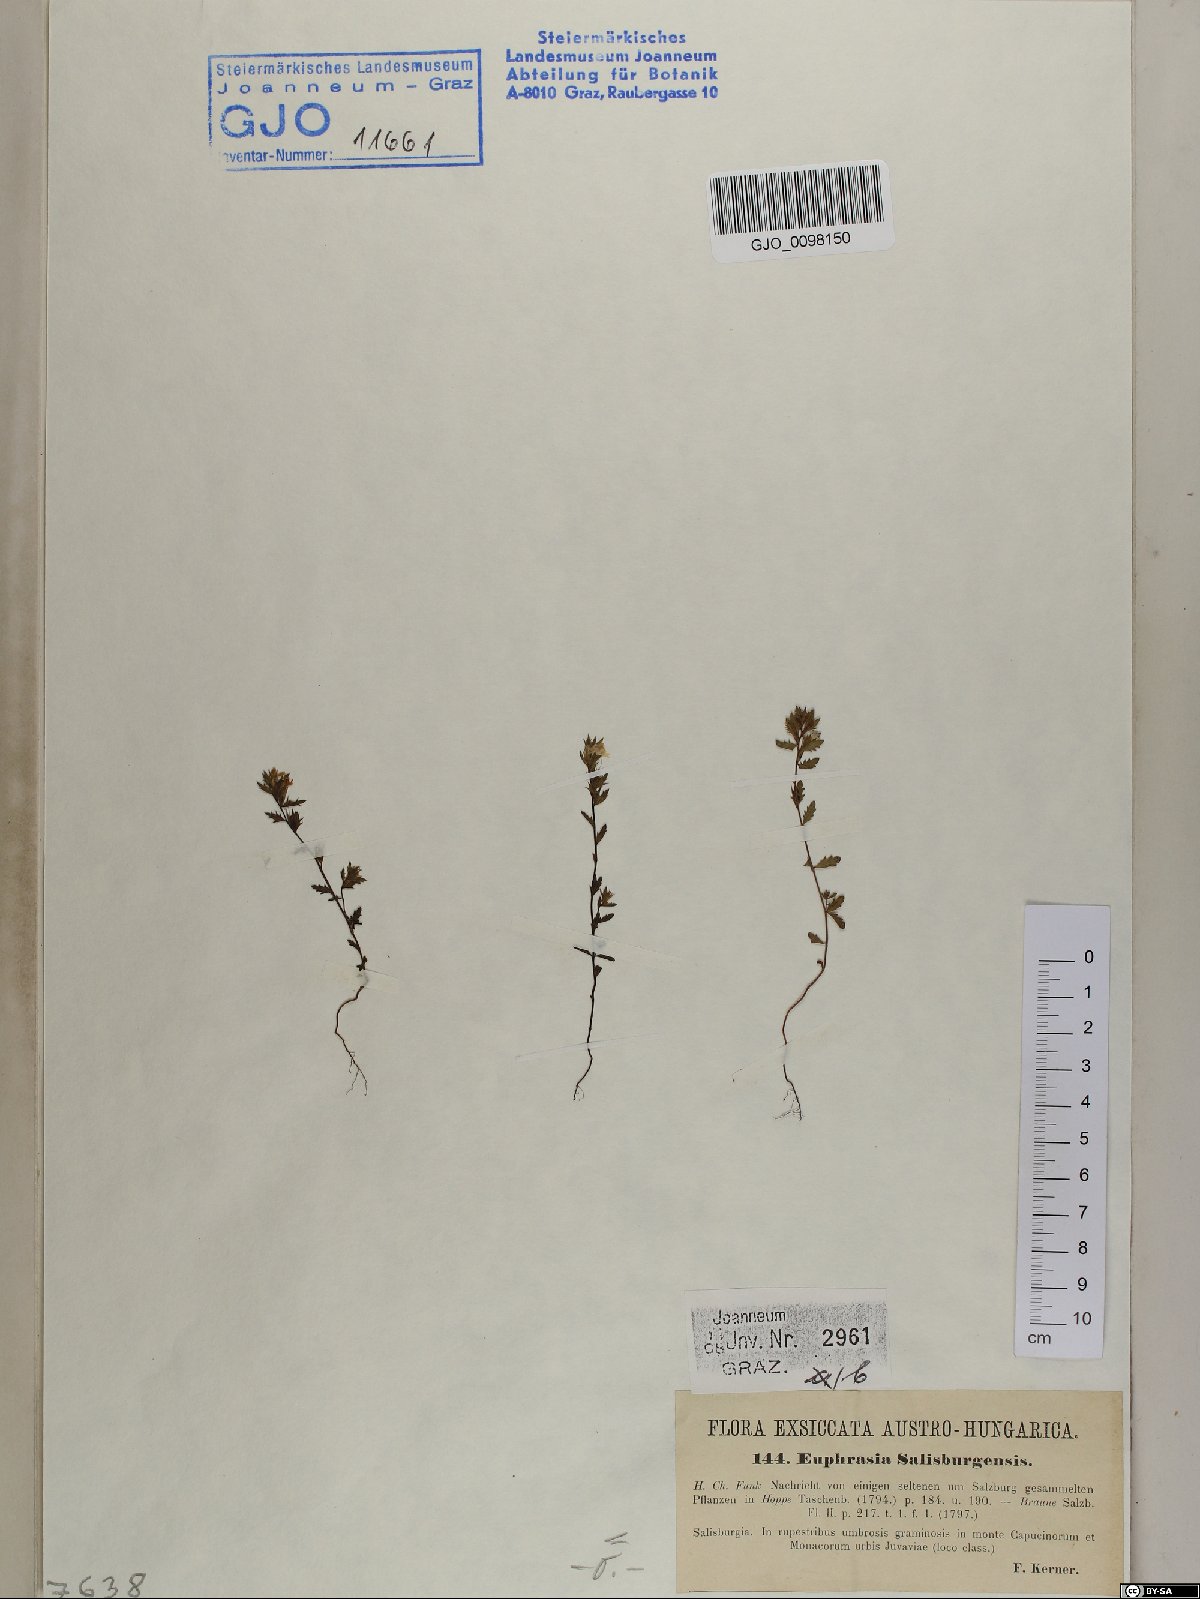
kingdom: Plantae
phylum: Tracheophyta
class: Magnoliopsida
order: Lamiales
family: Orobanchaceae
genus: Euphrasia
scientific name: Euphrasia salisburgensis
